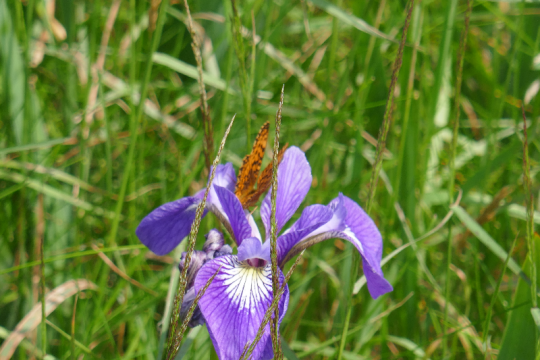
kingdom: Animalia
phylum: Arthropoda
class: Insecta
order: Lepidoptera
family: Nymphalidae
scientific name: Nymphalidae
